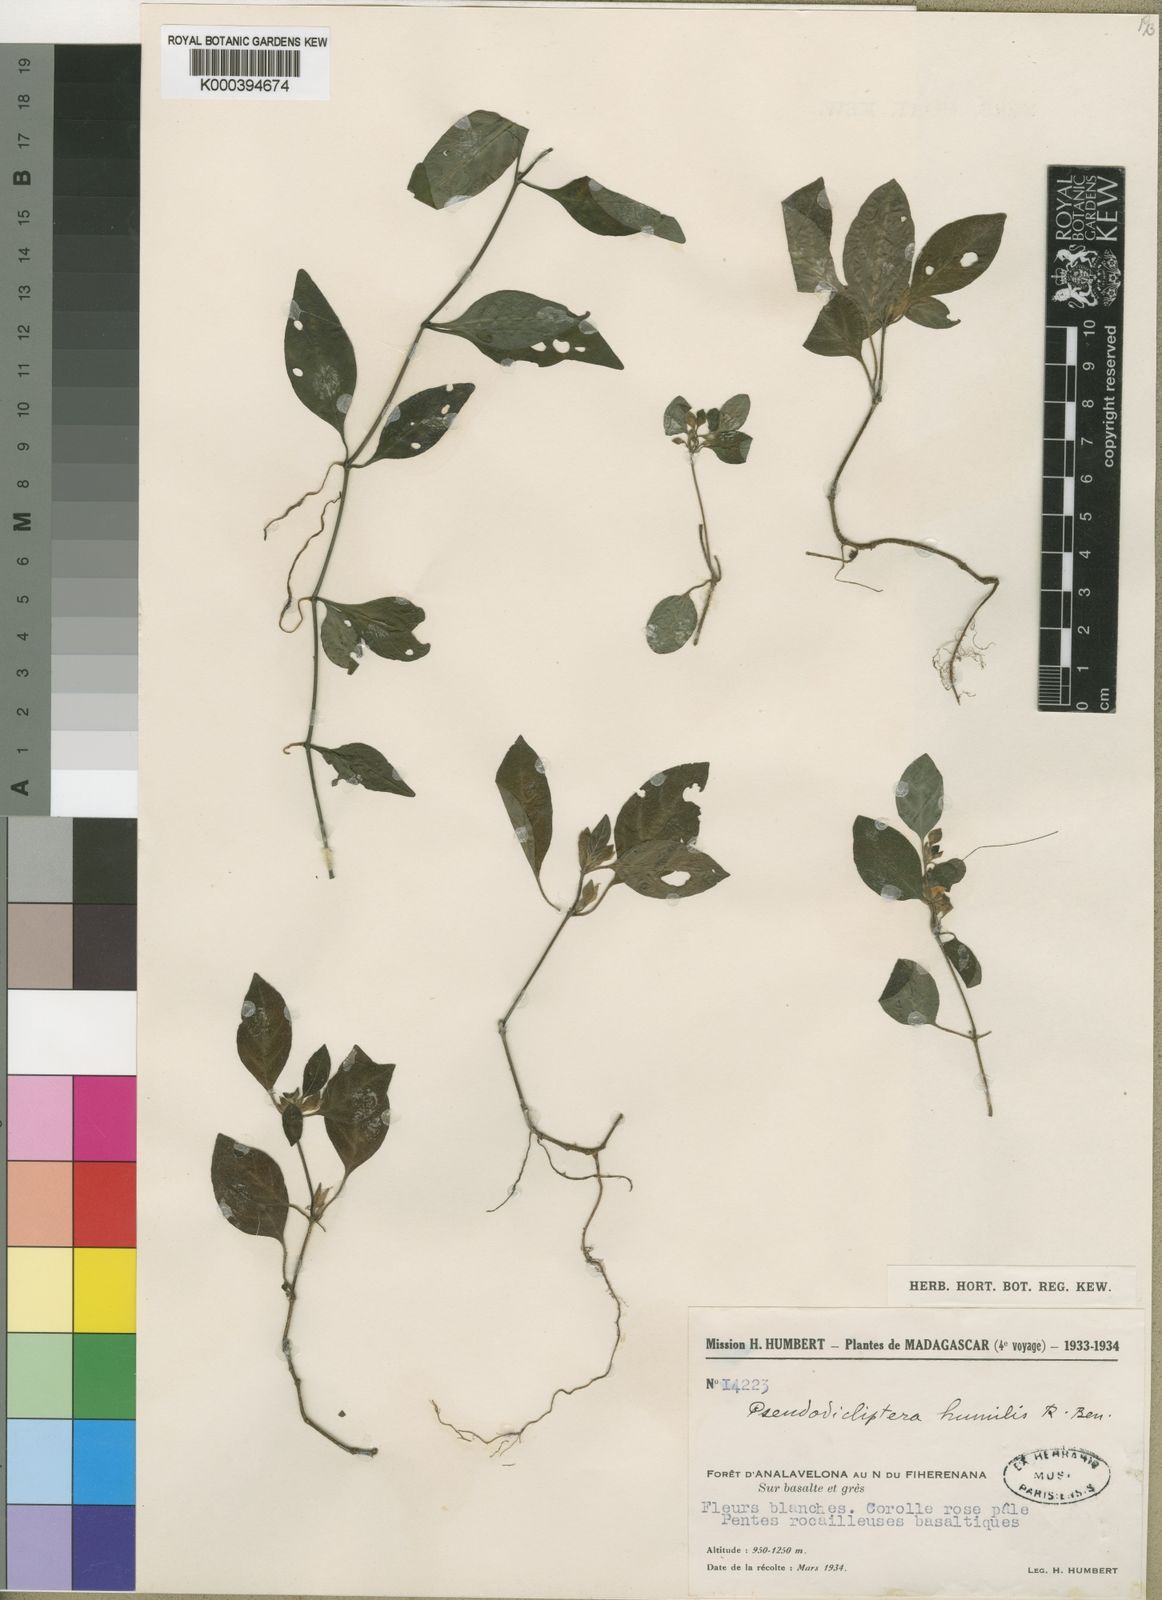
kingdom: Plantae
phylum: Tracheophyta
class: Magnoliopsida
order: Lamiales
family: Acanthaceae
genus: Pseudodicliptera
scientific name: Pseudodicliptera humilis
